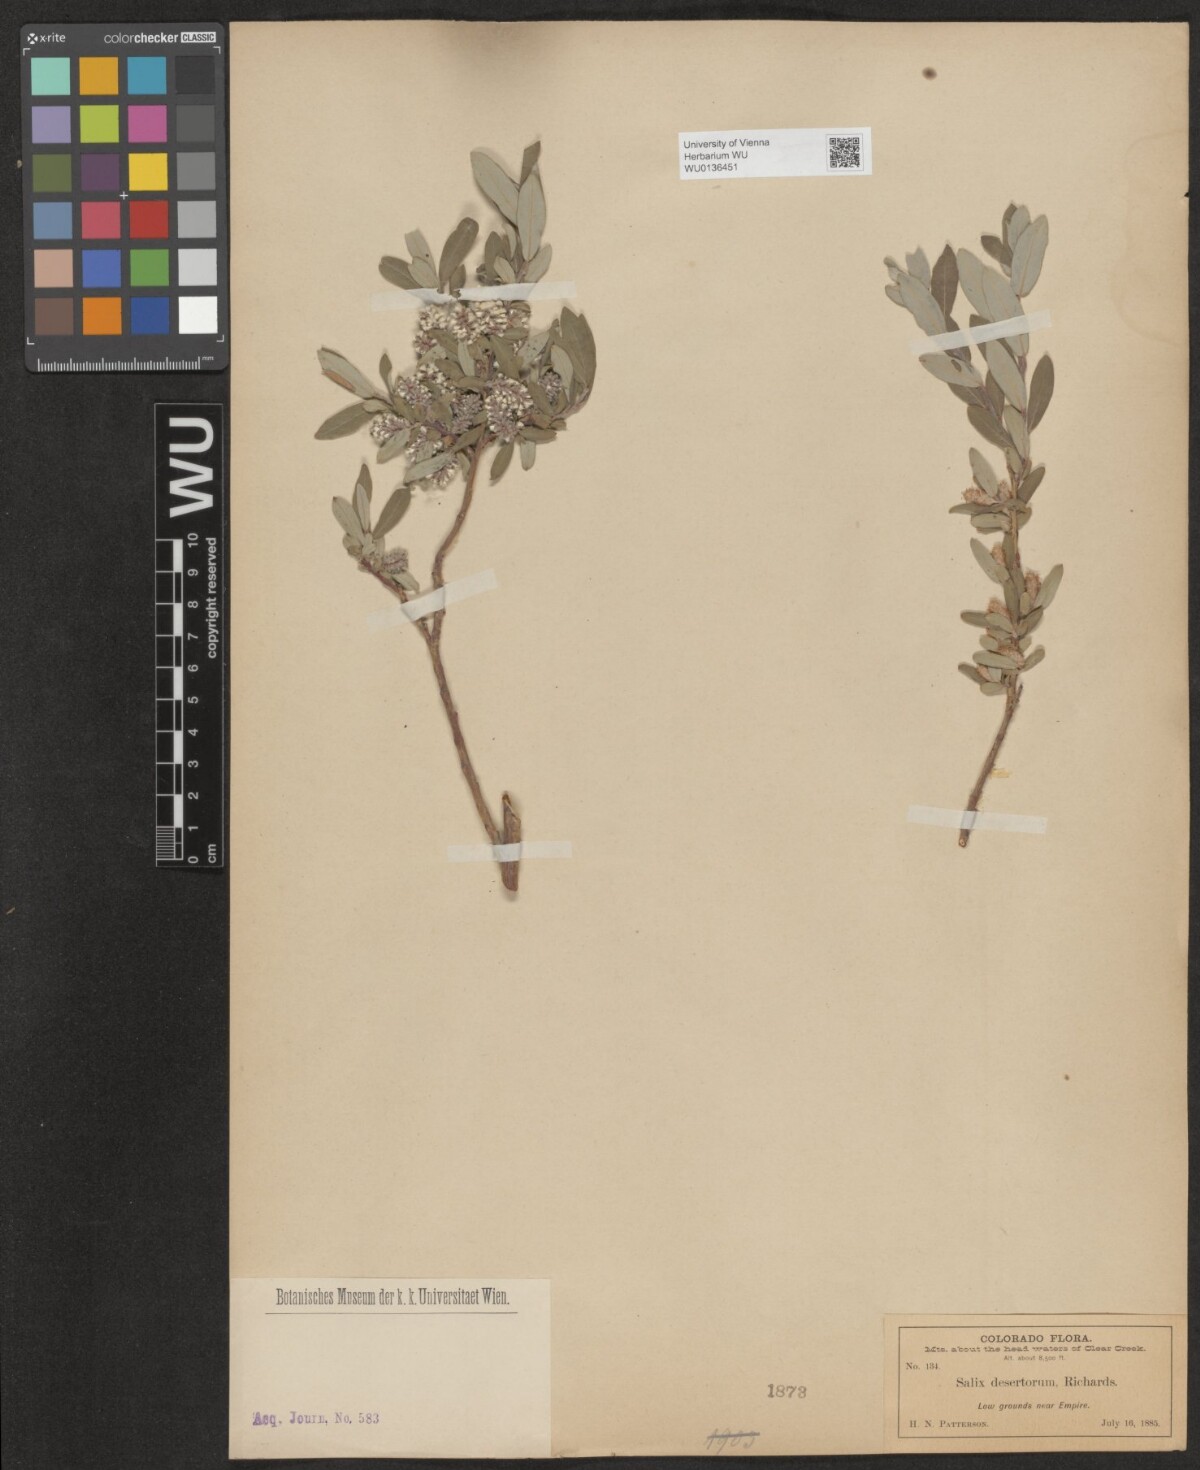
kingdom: Plantae
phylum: Tracheophyta
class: Magnoliopsida
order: Malpighiales
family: Salicaceae
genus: Salix
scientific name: Salix glauca
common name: Glaucous willow
